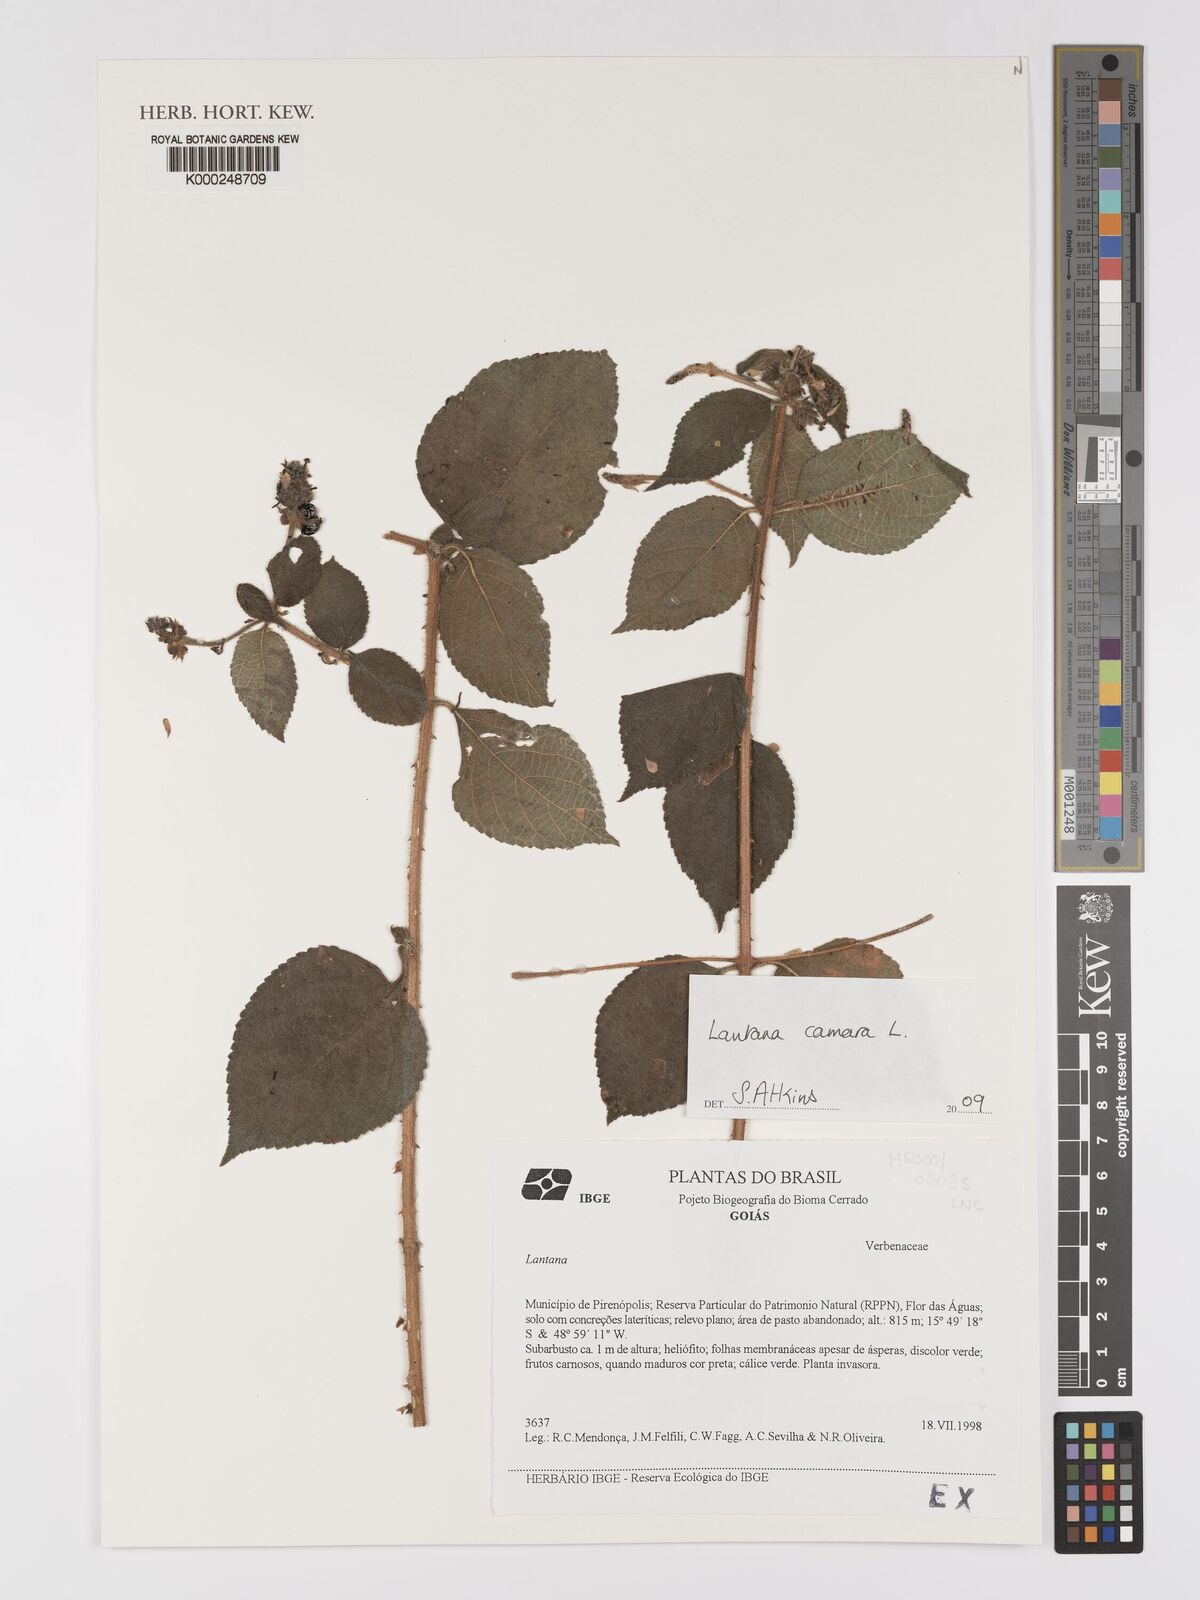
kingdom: Plantae
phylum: Tracheophyta
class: Magnoliopsida
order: Lamiales
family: Verbenaceae
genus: Lantana
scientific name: Lantana camara
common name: Lantana
